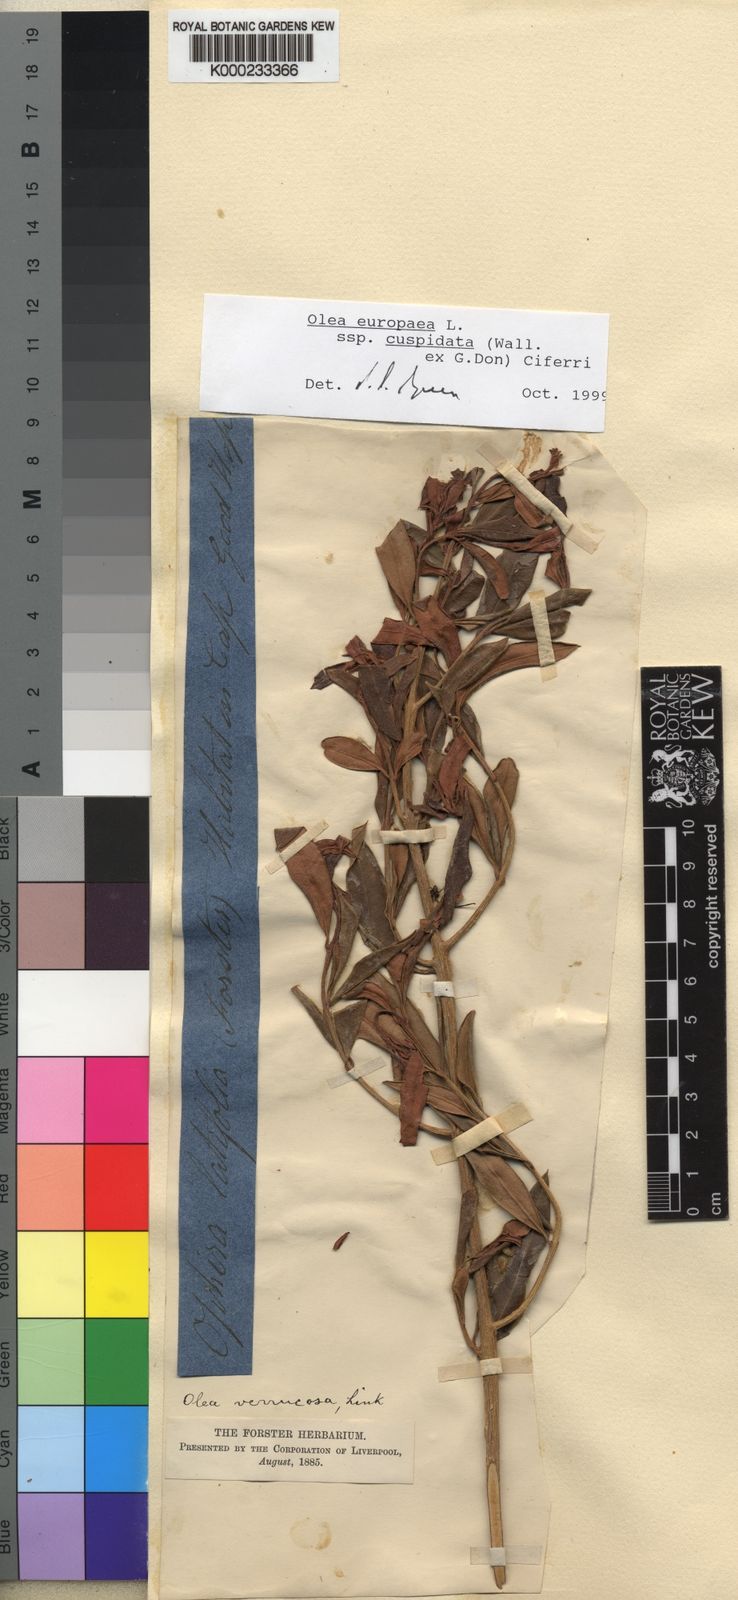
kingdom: Plantae
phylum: Tracheophyta
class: Magnoliopsida
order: Lamiales
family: Oleaceae
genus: Olea
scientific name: Olea europaea
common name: Olive
